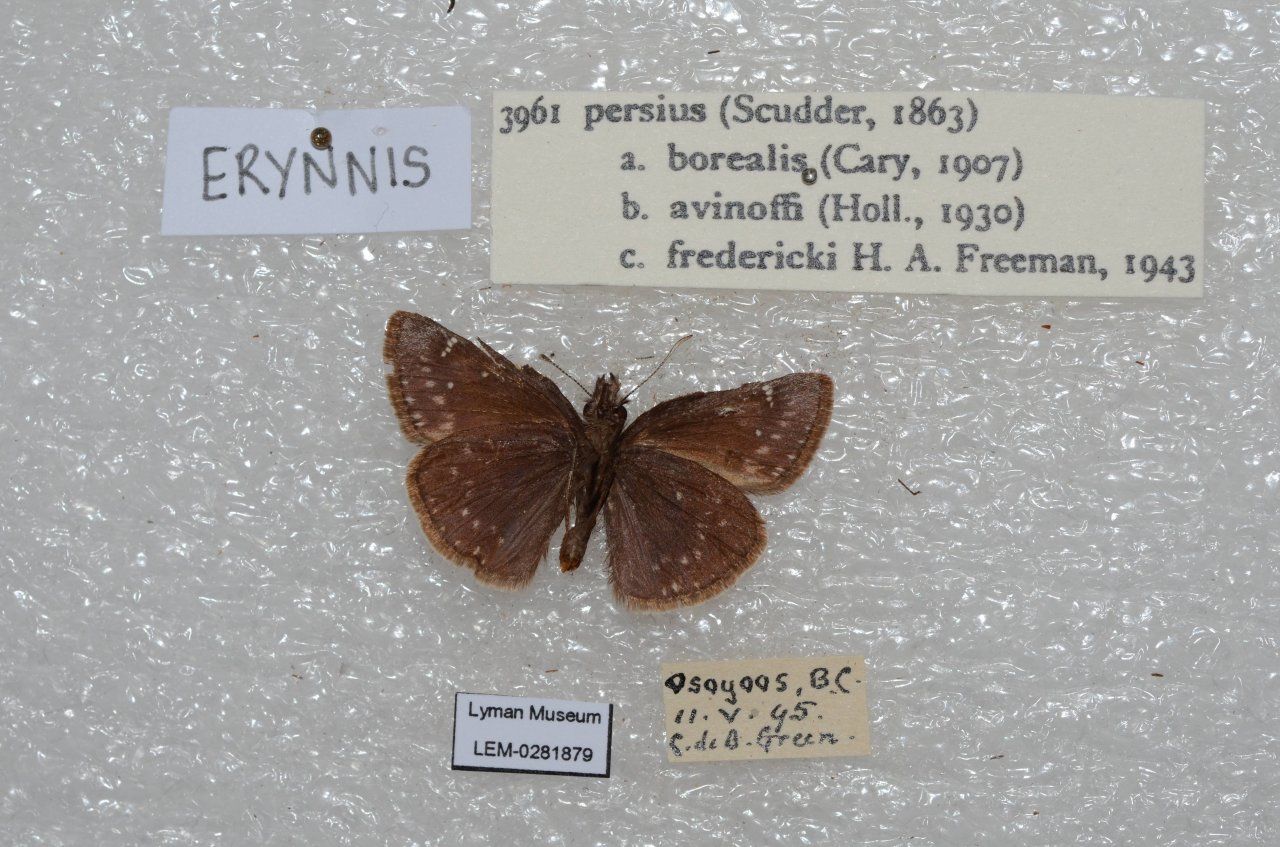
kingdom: Animalia
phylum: Arthropoda
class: Insecta
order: Lepidoptera
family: Hesperiidae
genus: Gesta
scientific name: Gesta
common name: Persius Duskywing
